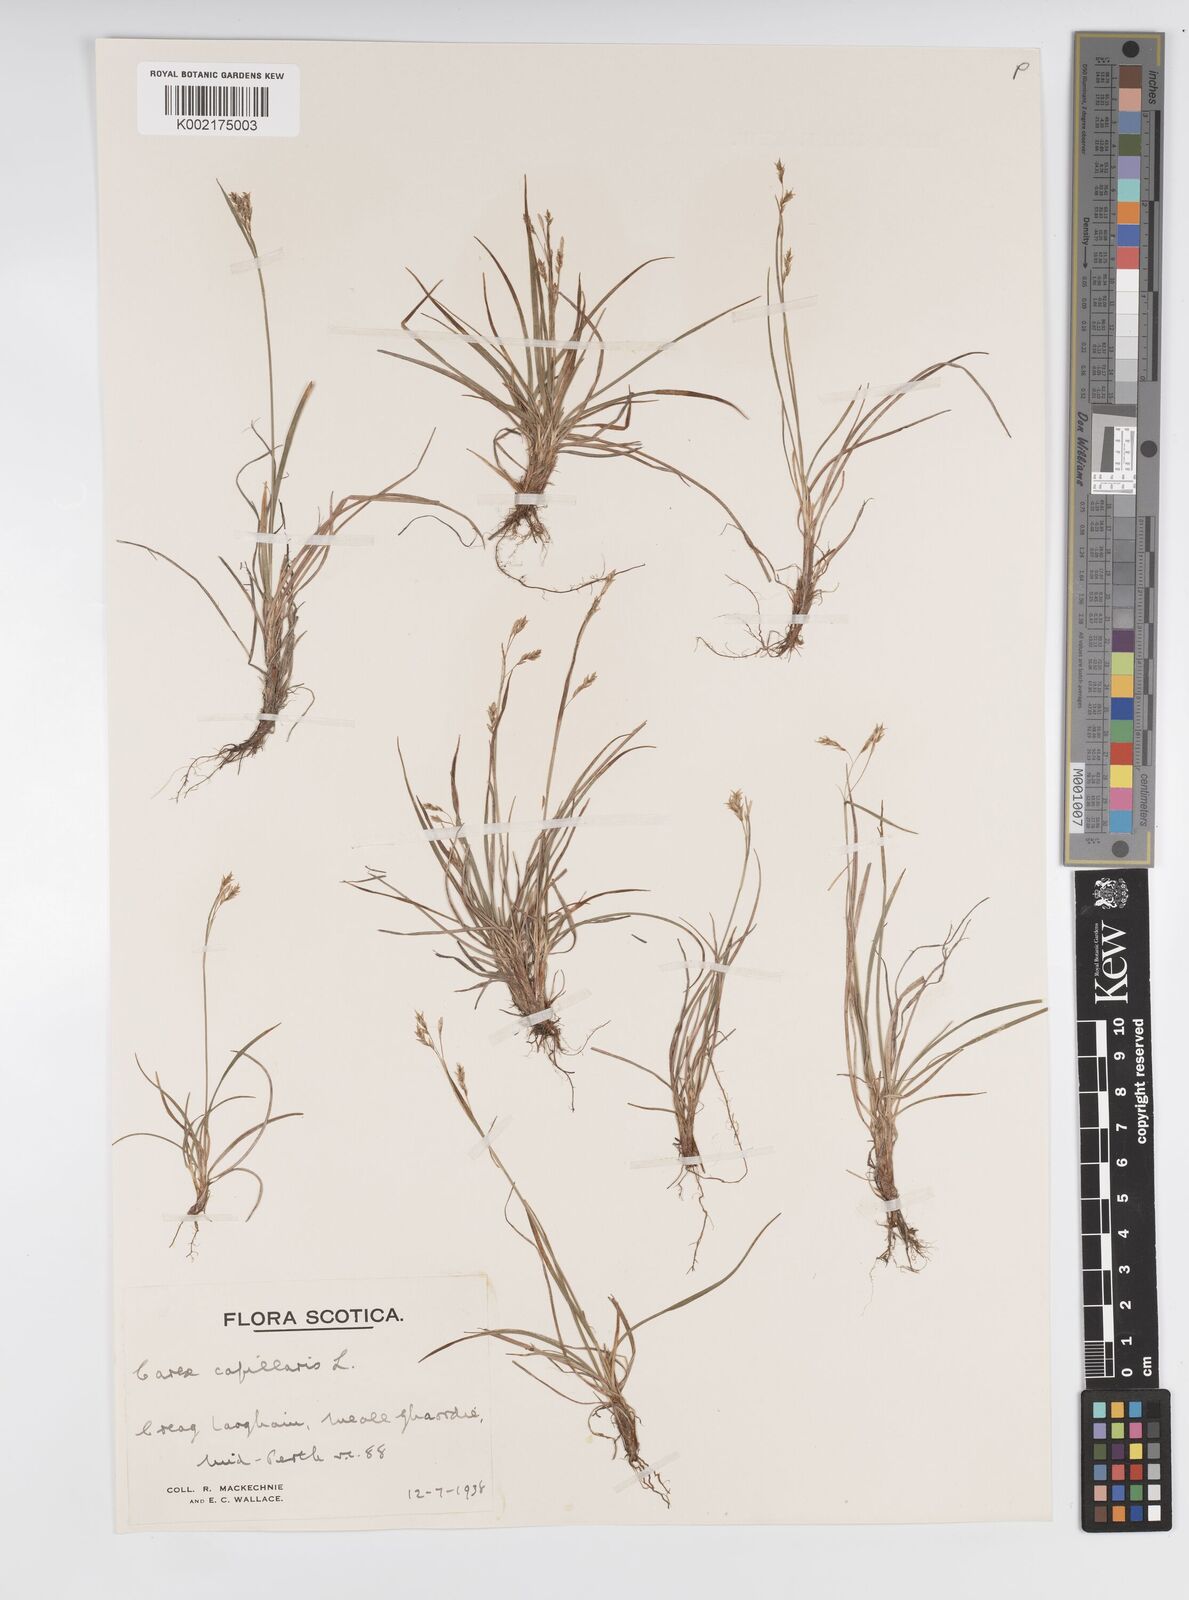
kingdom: Plantae
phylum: Tracheophyta
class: Liliopsida
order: Poales
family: Cyperaceae
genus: Carex
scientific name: Carex capillaris
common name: Hair sedge
